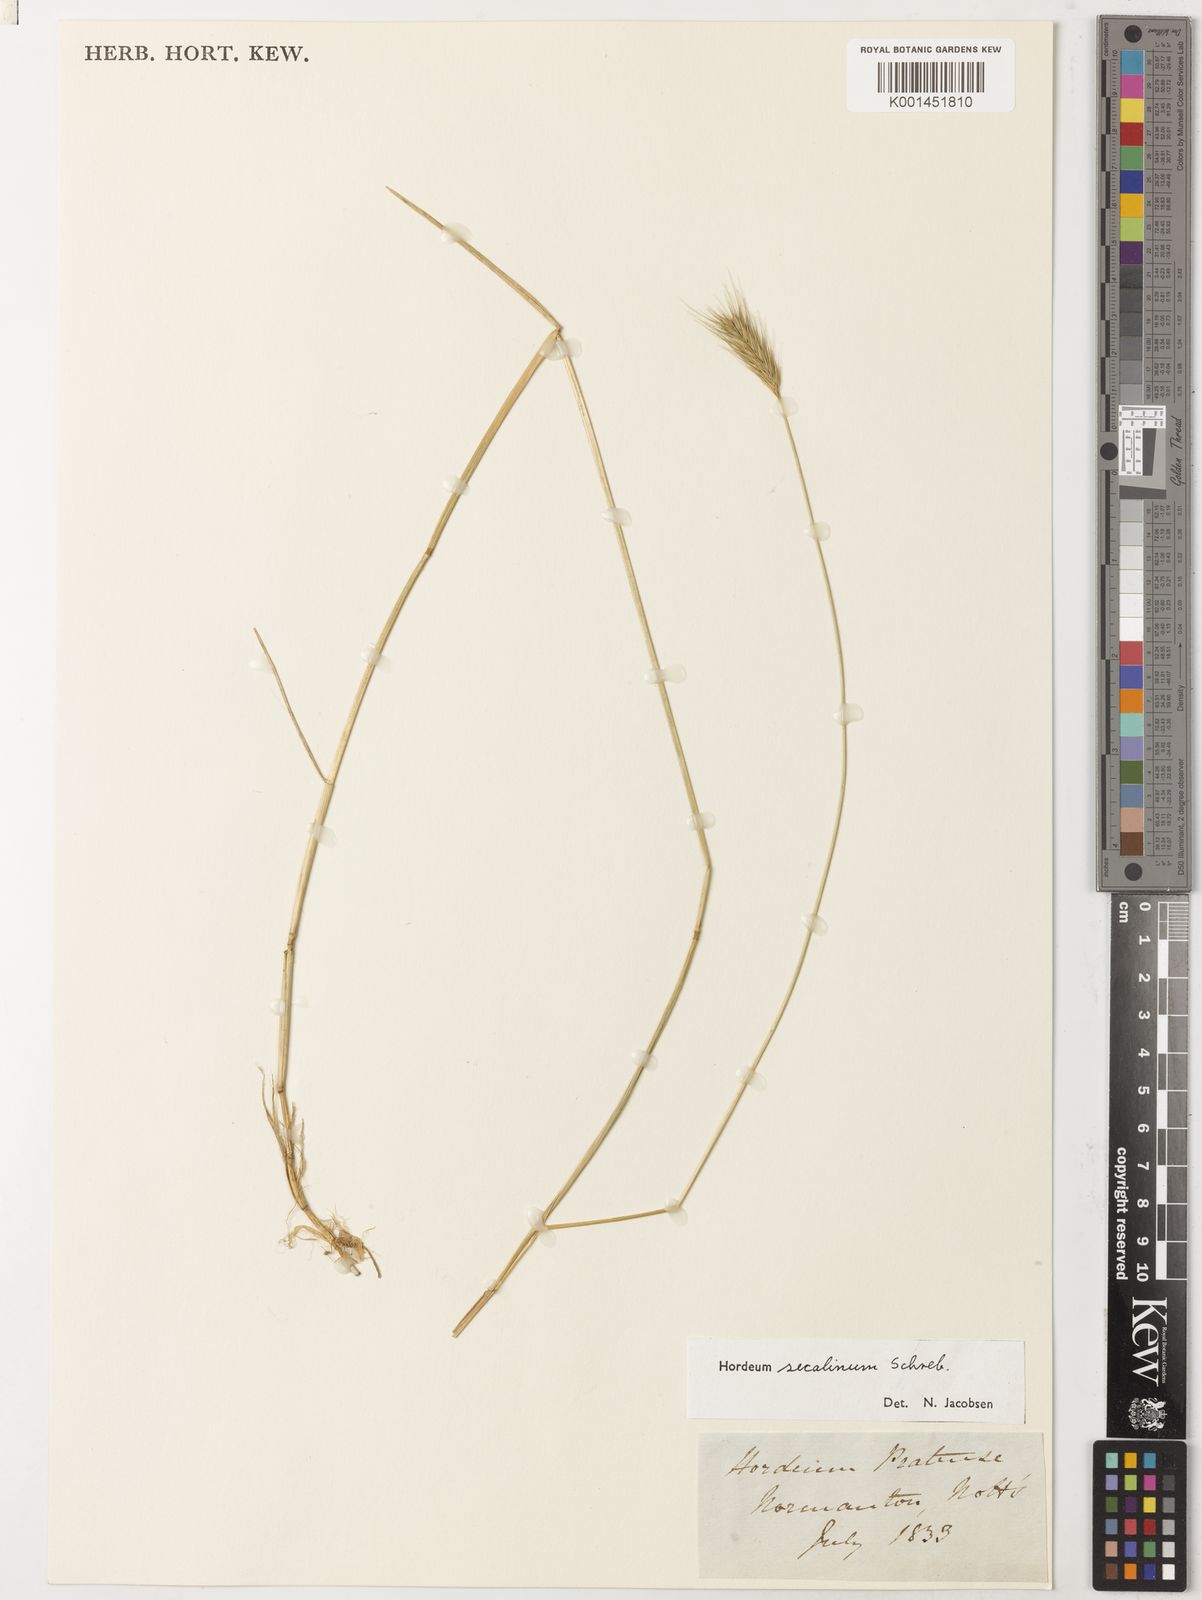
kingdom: Plantae
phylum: Tracheophyta
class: Liliopsida
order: Poales
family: Poaceae
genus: Hordeum
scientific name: Hordeum secalinum
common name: Meadow barley
